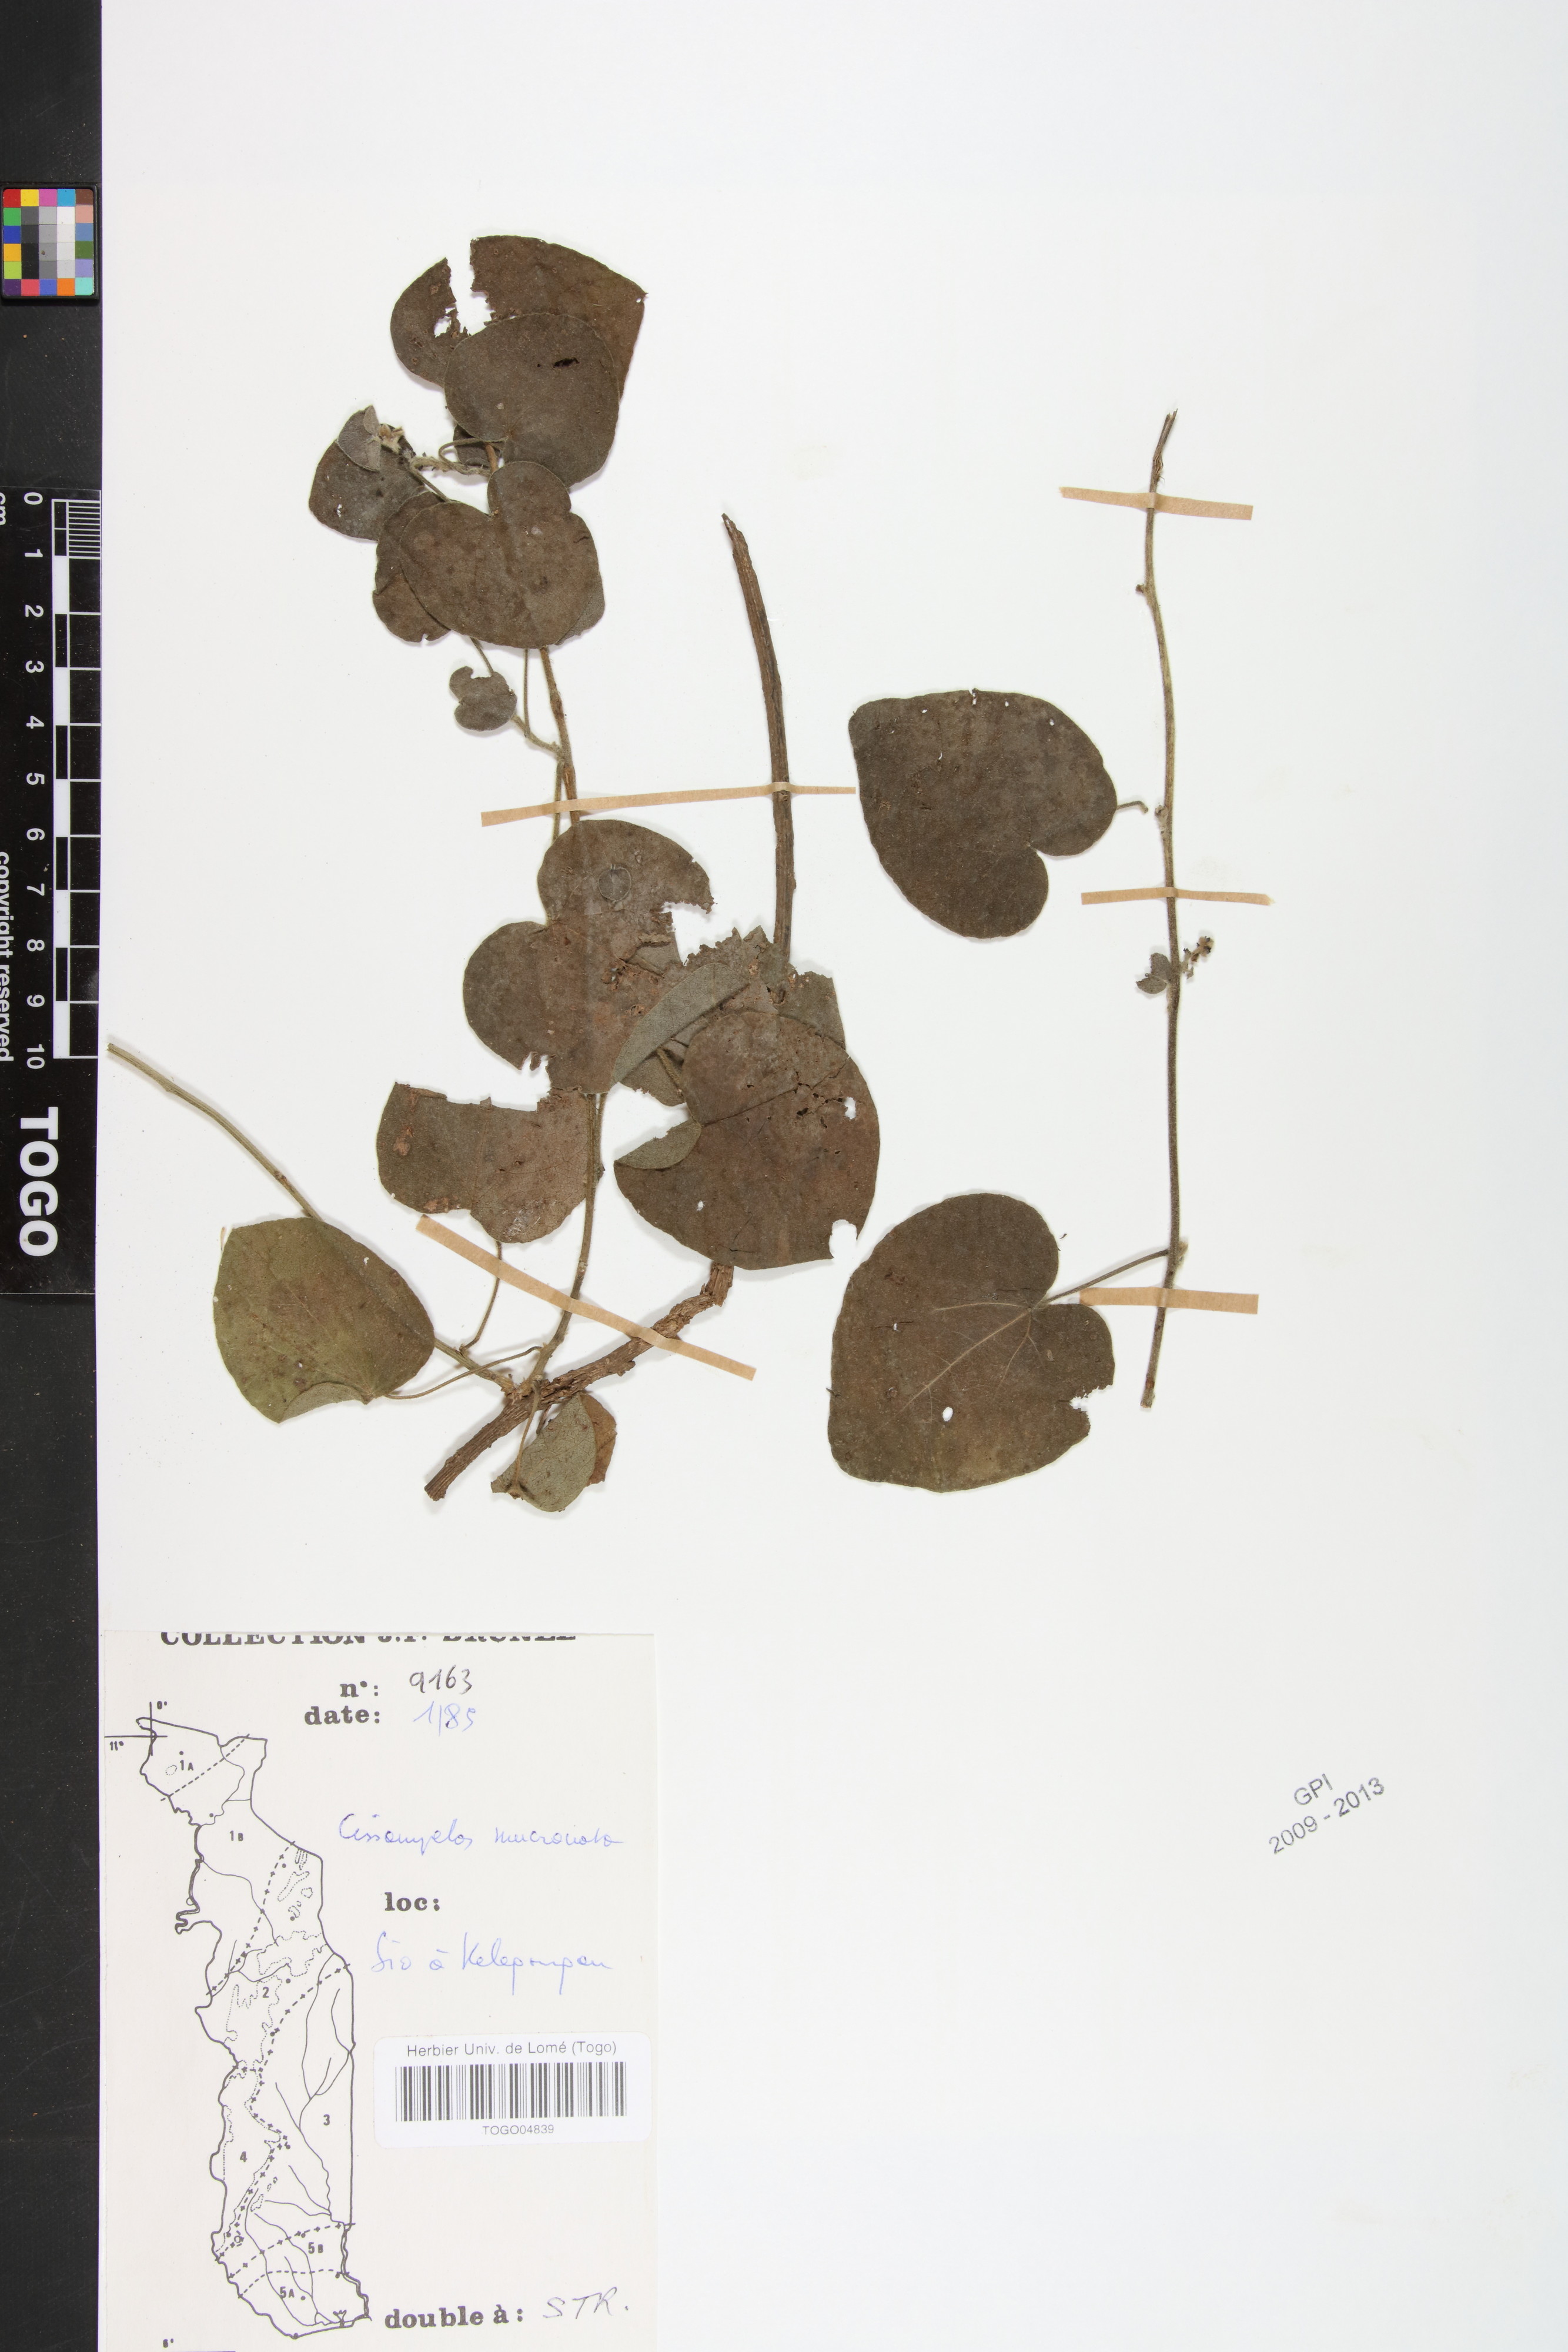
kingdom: Plantae
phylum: Tracheophyta
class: Magnoliopsida
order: Ranunculales
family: Menispermaceae
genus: Cissampelos
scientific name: Cissampelos mucronata
